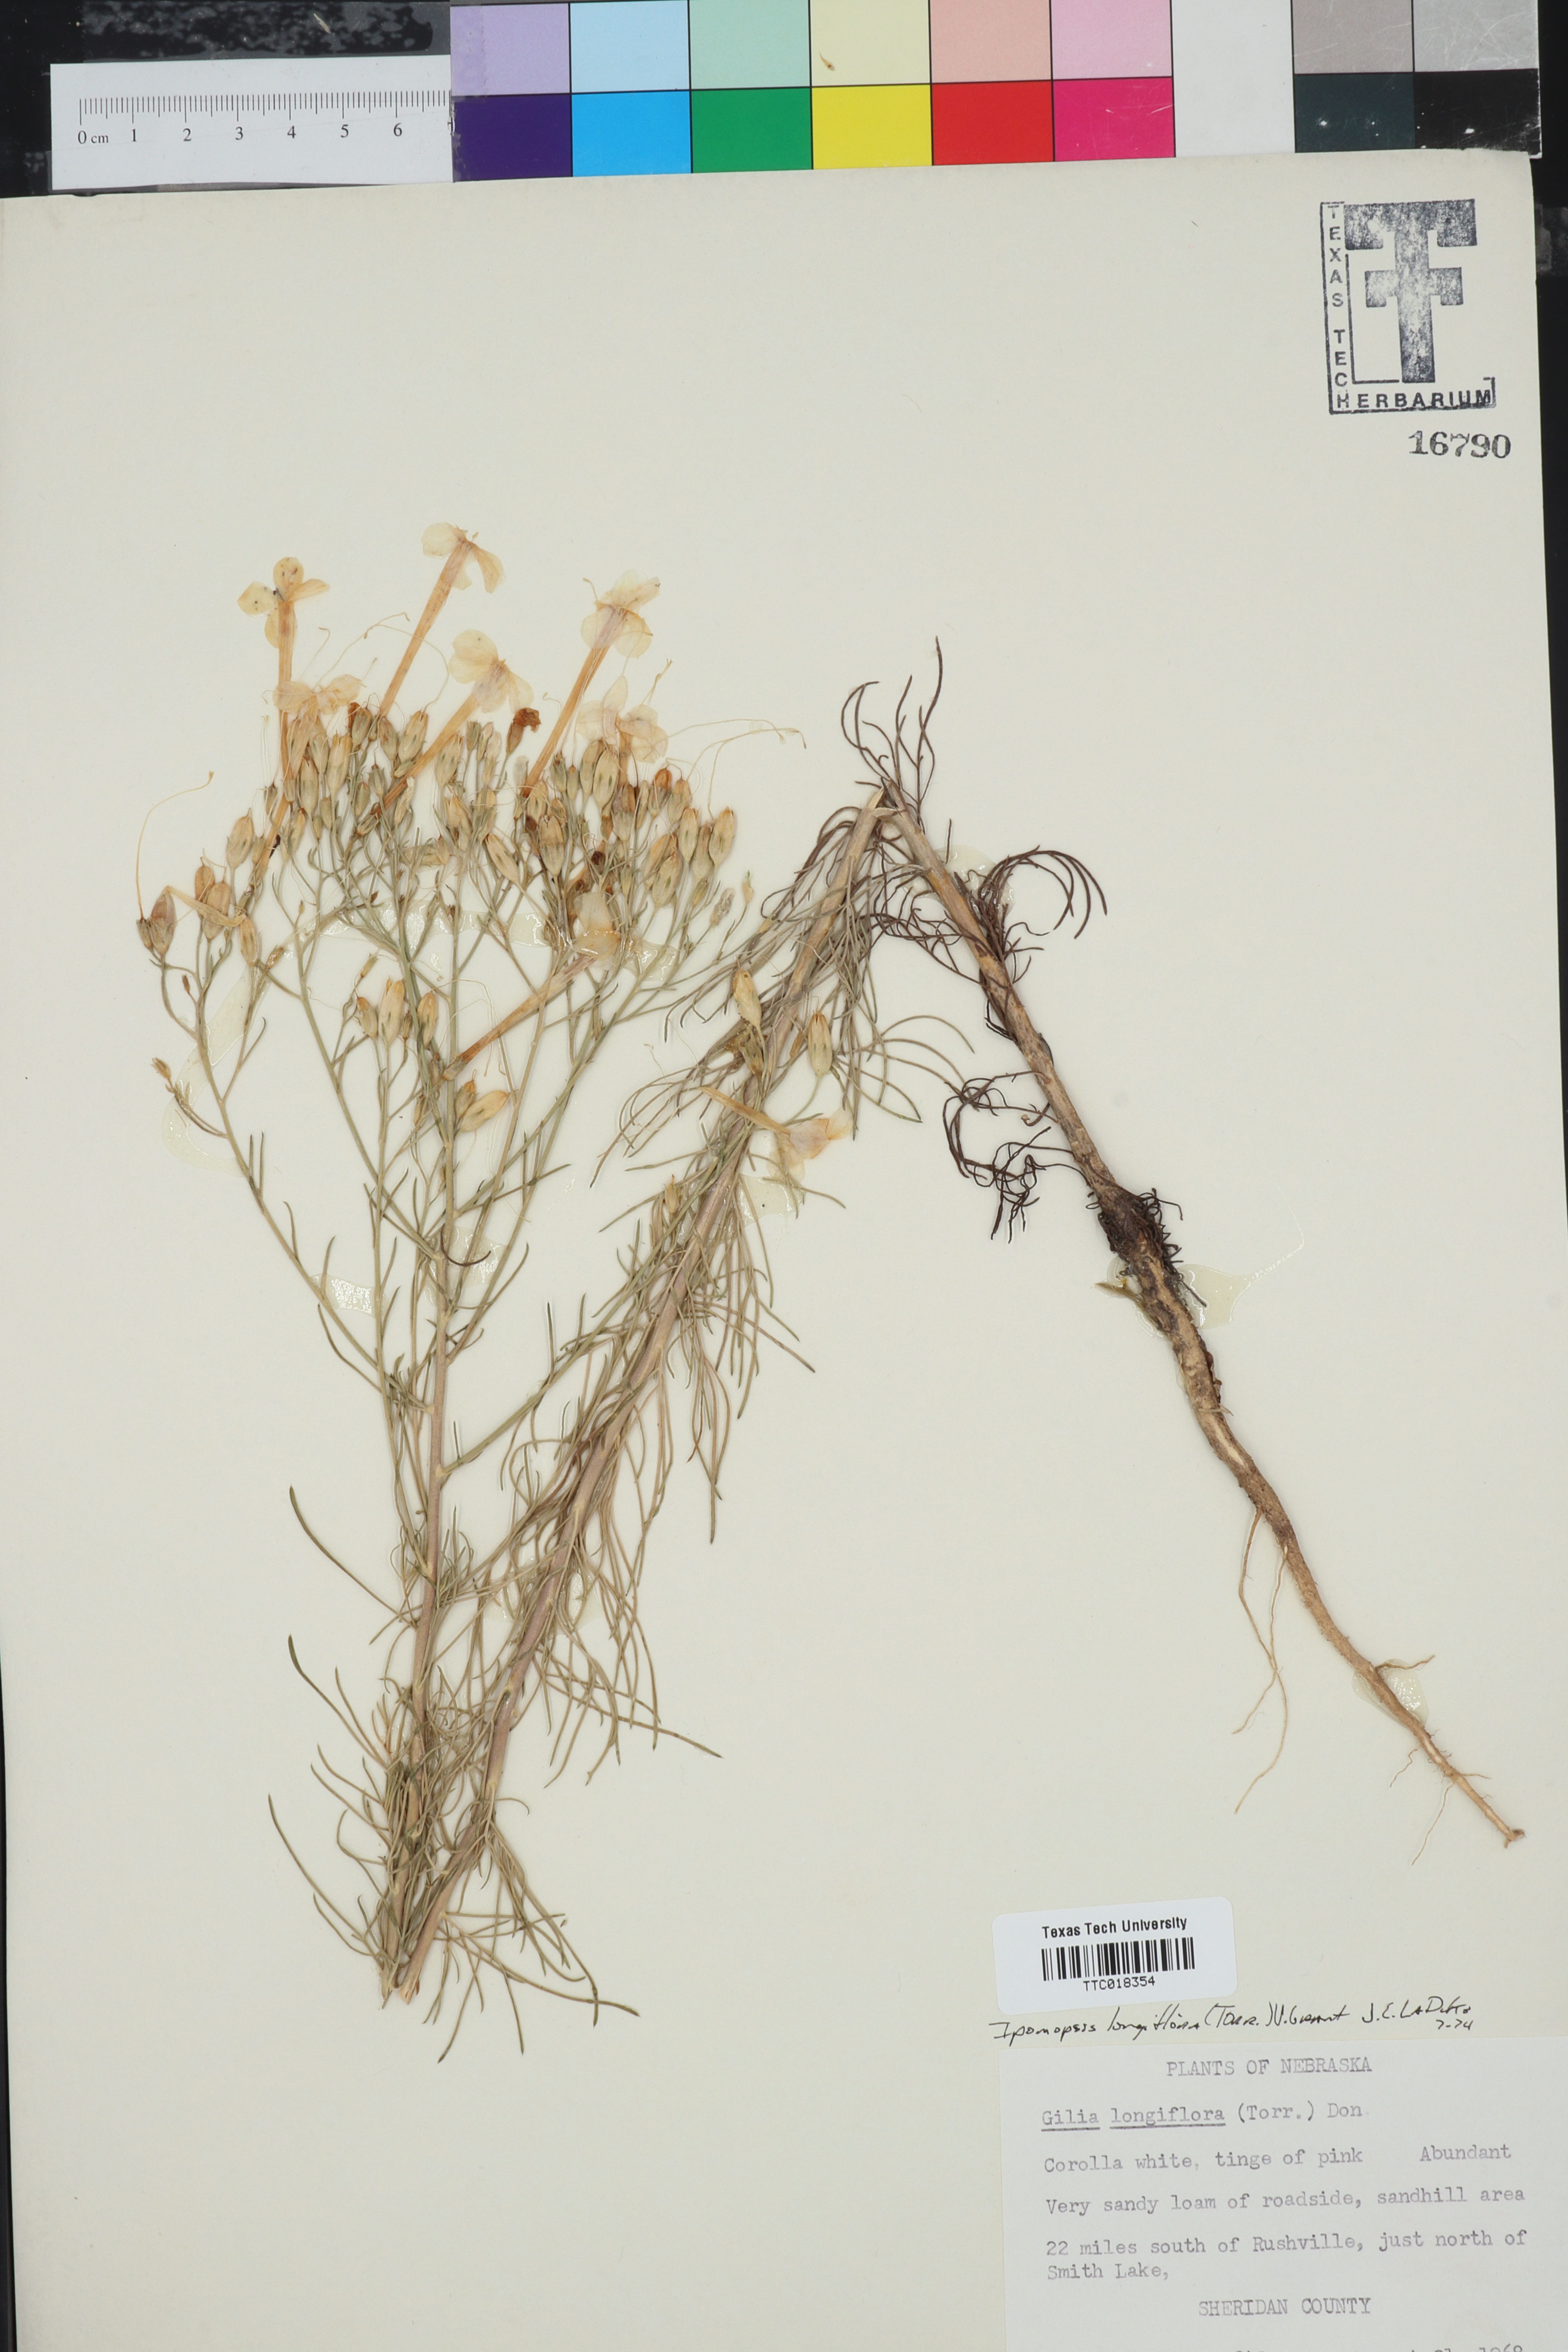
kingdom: Plantae
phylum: Tracheophyta
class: Magnoliopsida
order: Ericales
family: Polemoniaceae
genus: Ipomopsis
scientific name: Ipomopsis longiflora
